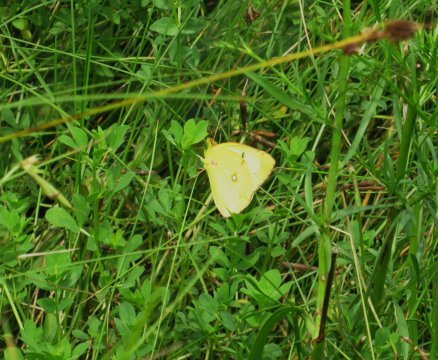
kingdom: Animalia
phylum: Arthropoda
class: Insecta
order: Lepidoptera
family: Pieridae
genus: Colias
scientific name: Colias eurytheme
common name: Orange Sulphur
